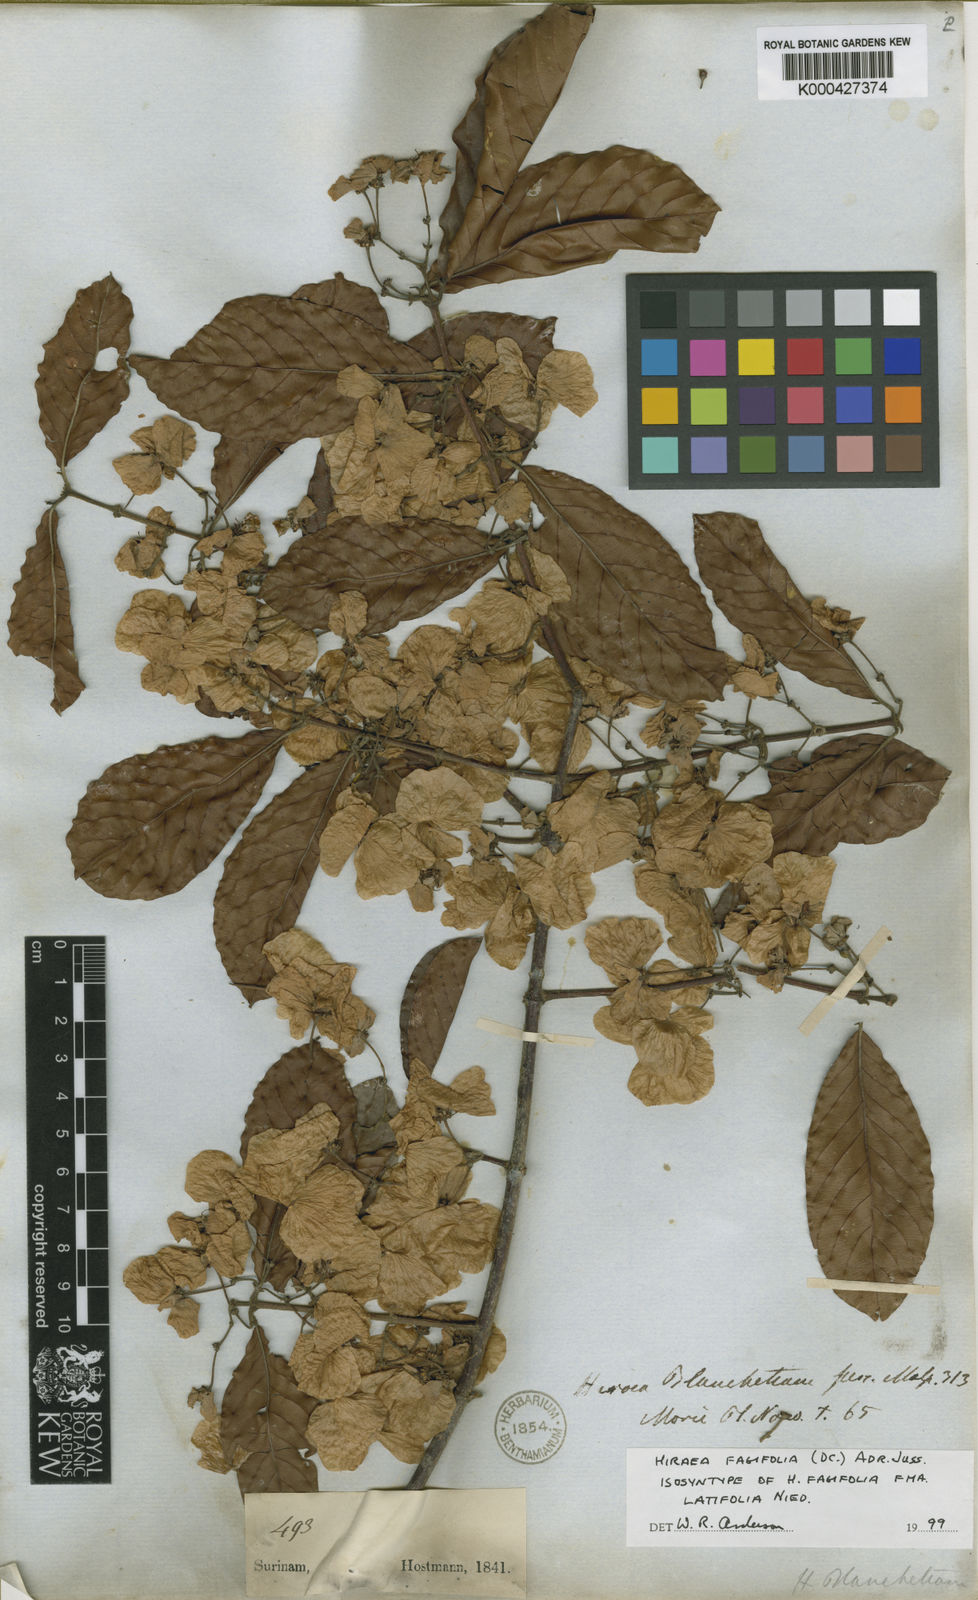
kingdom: Plantae
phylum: Tracheophyta
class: Magnoliopsida
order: Malpighiales
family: Malpighiaceae
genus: Hiraea
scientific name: Hiraea fagifolia
